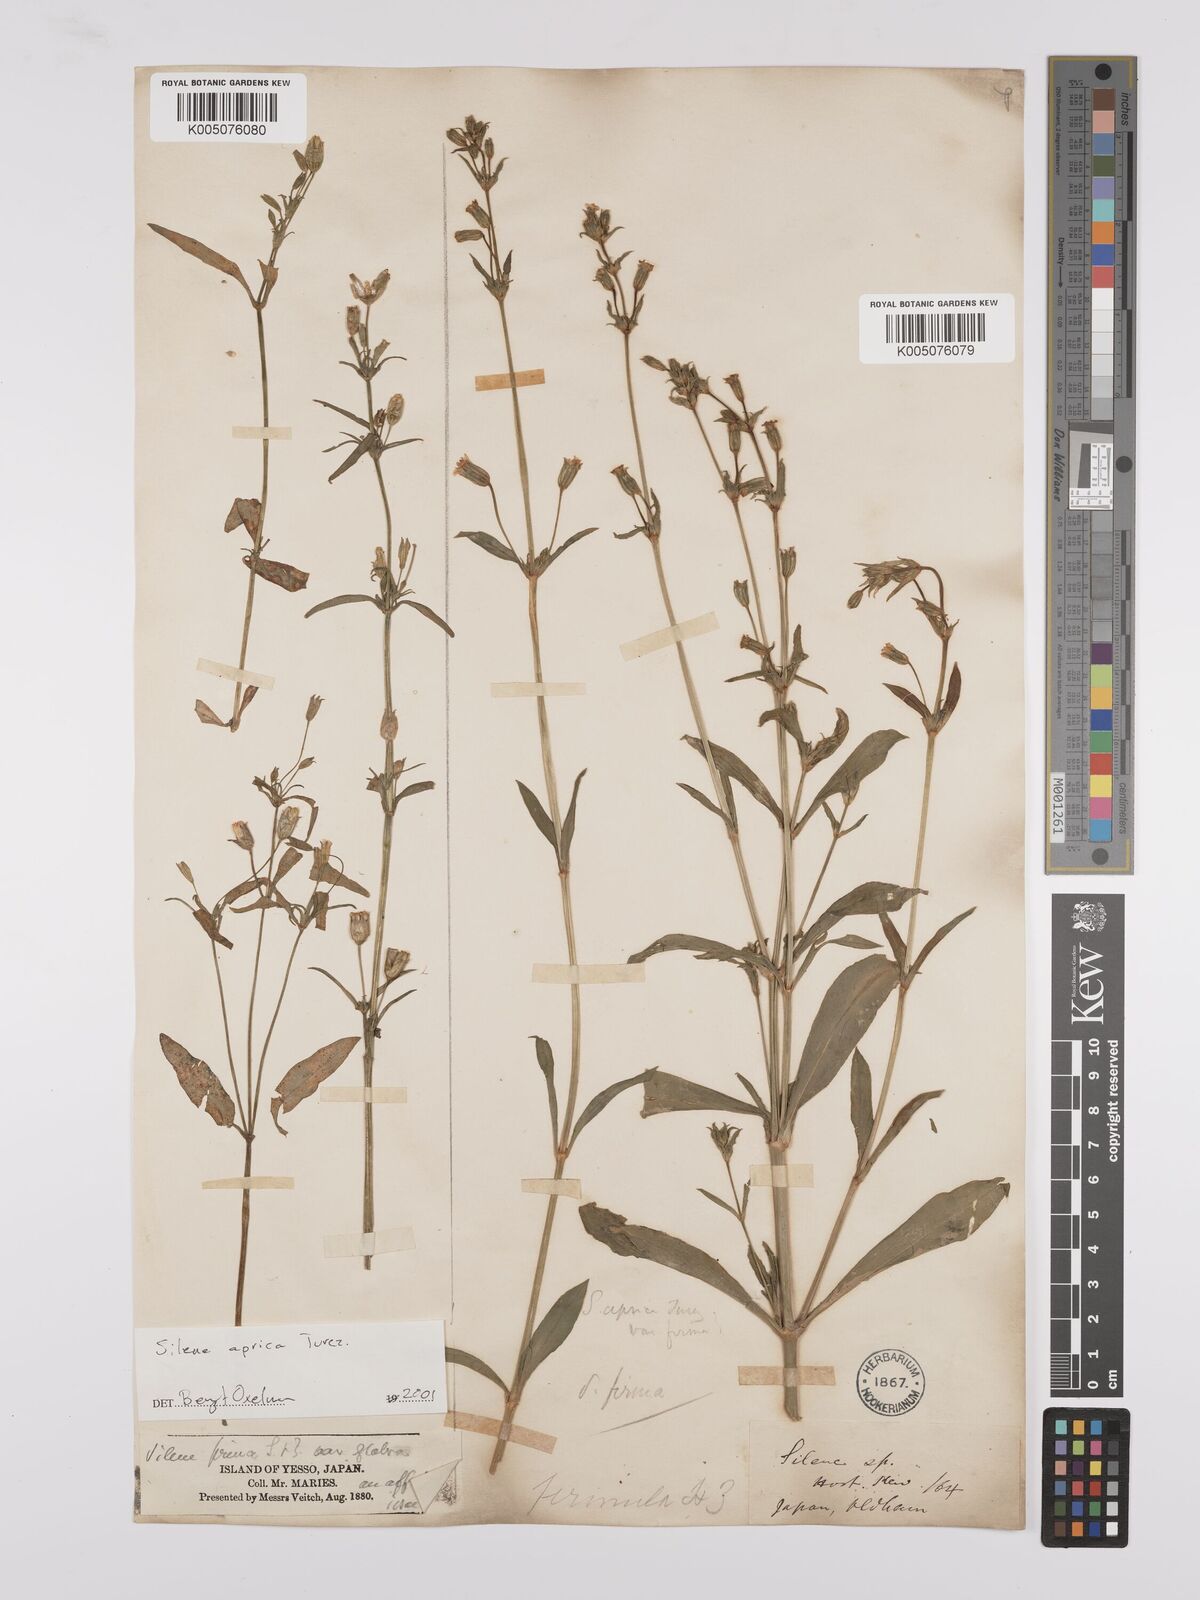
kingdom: Plantae
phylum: Tracheophyta
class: Magnoliopsida
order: Caryophyllales
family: Caryophyllaceae
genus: Silene
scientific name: Silene aprica
